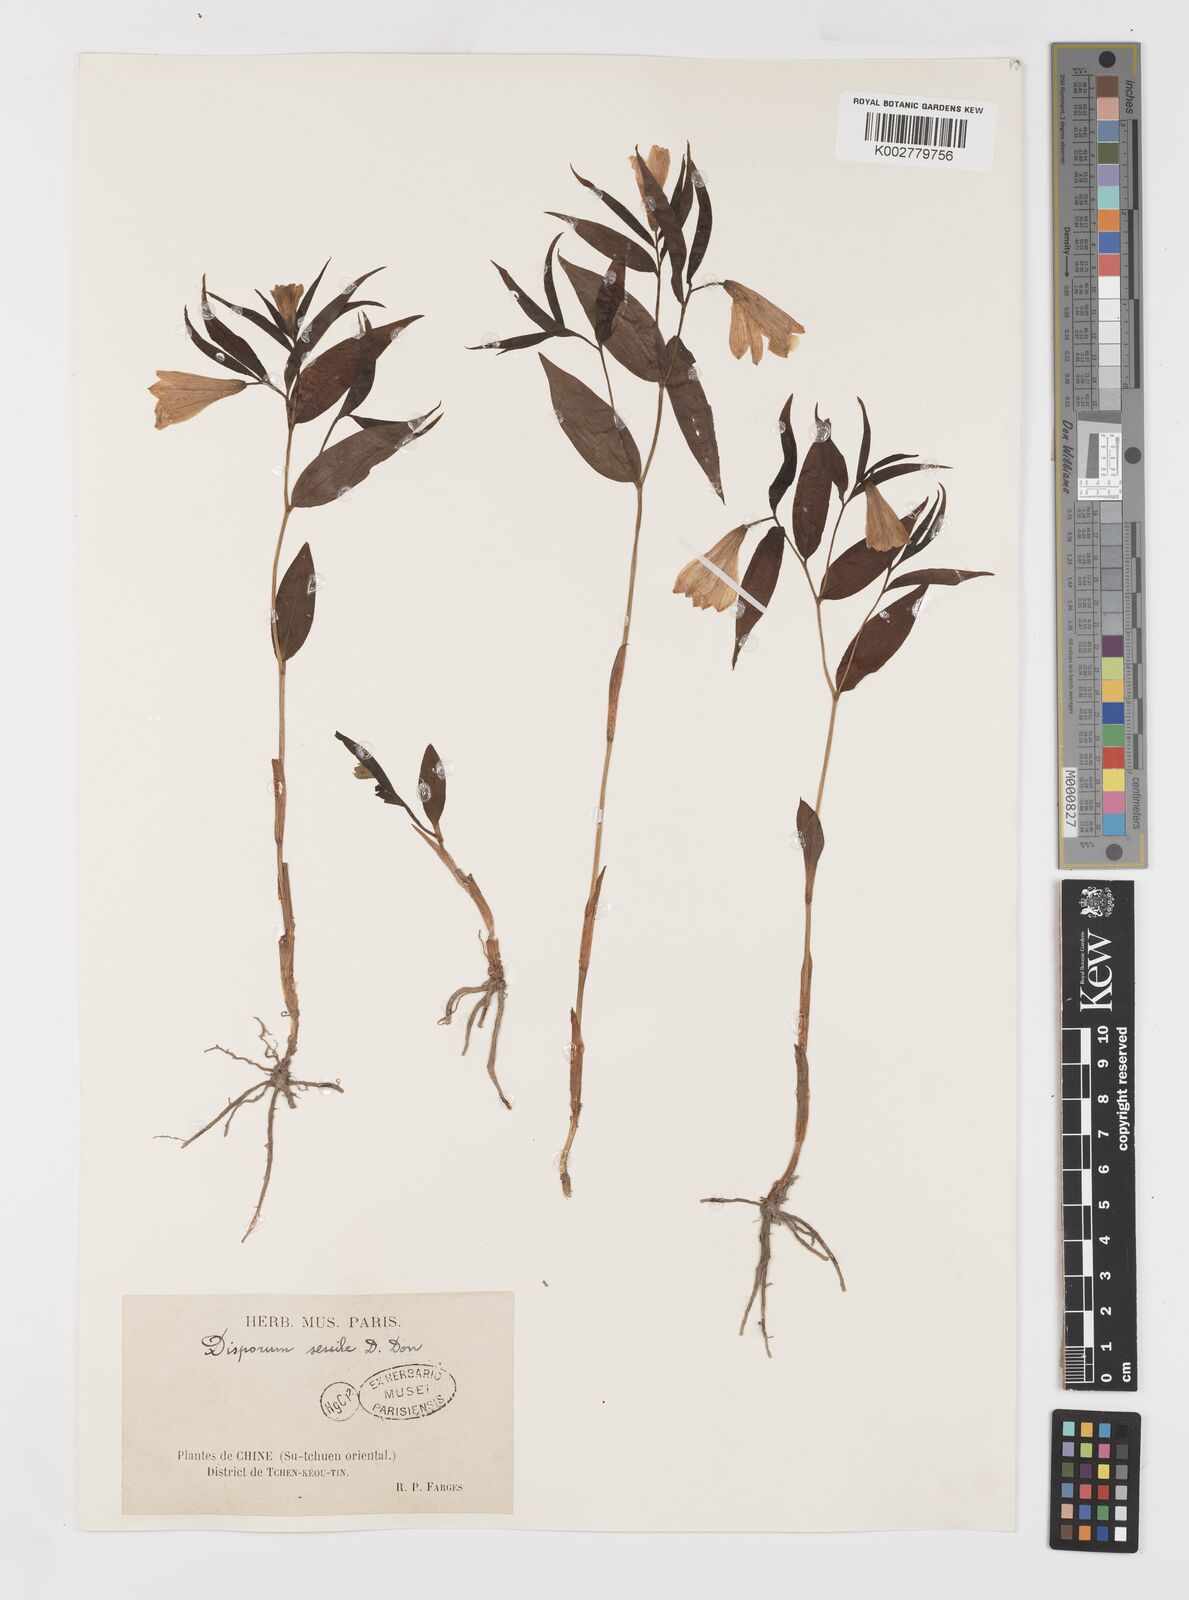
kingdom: Plantae
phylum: Tracheophyta
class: Liliopsida
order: Liliales
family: Colchicaceae
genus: Disporum
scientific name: Disporum sessile
